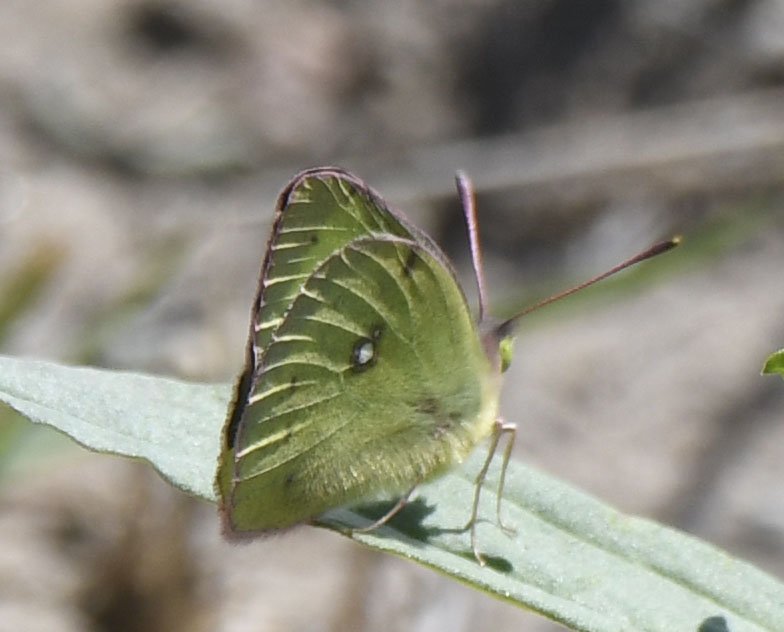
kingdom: Animalia
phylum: Arthropoda
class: Insecta
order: Lepidoptera
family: Pieridae
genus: Colias
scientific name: Colias philodice
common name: Clouded Sulphur
